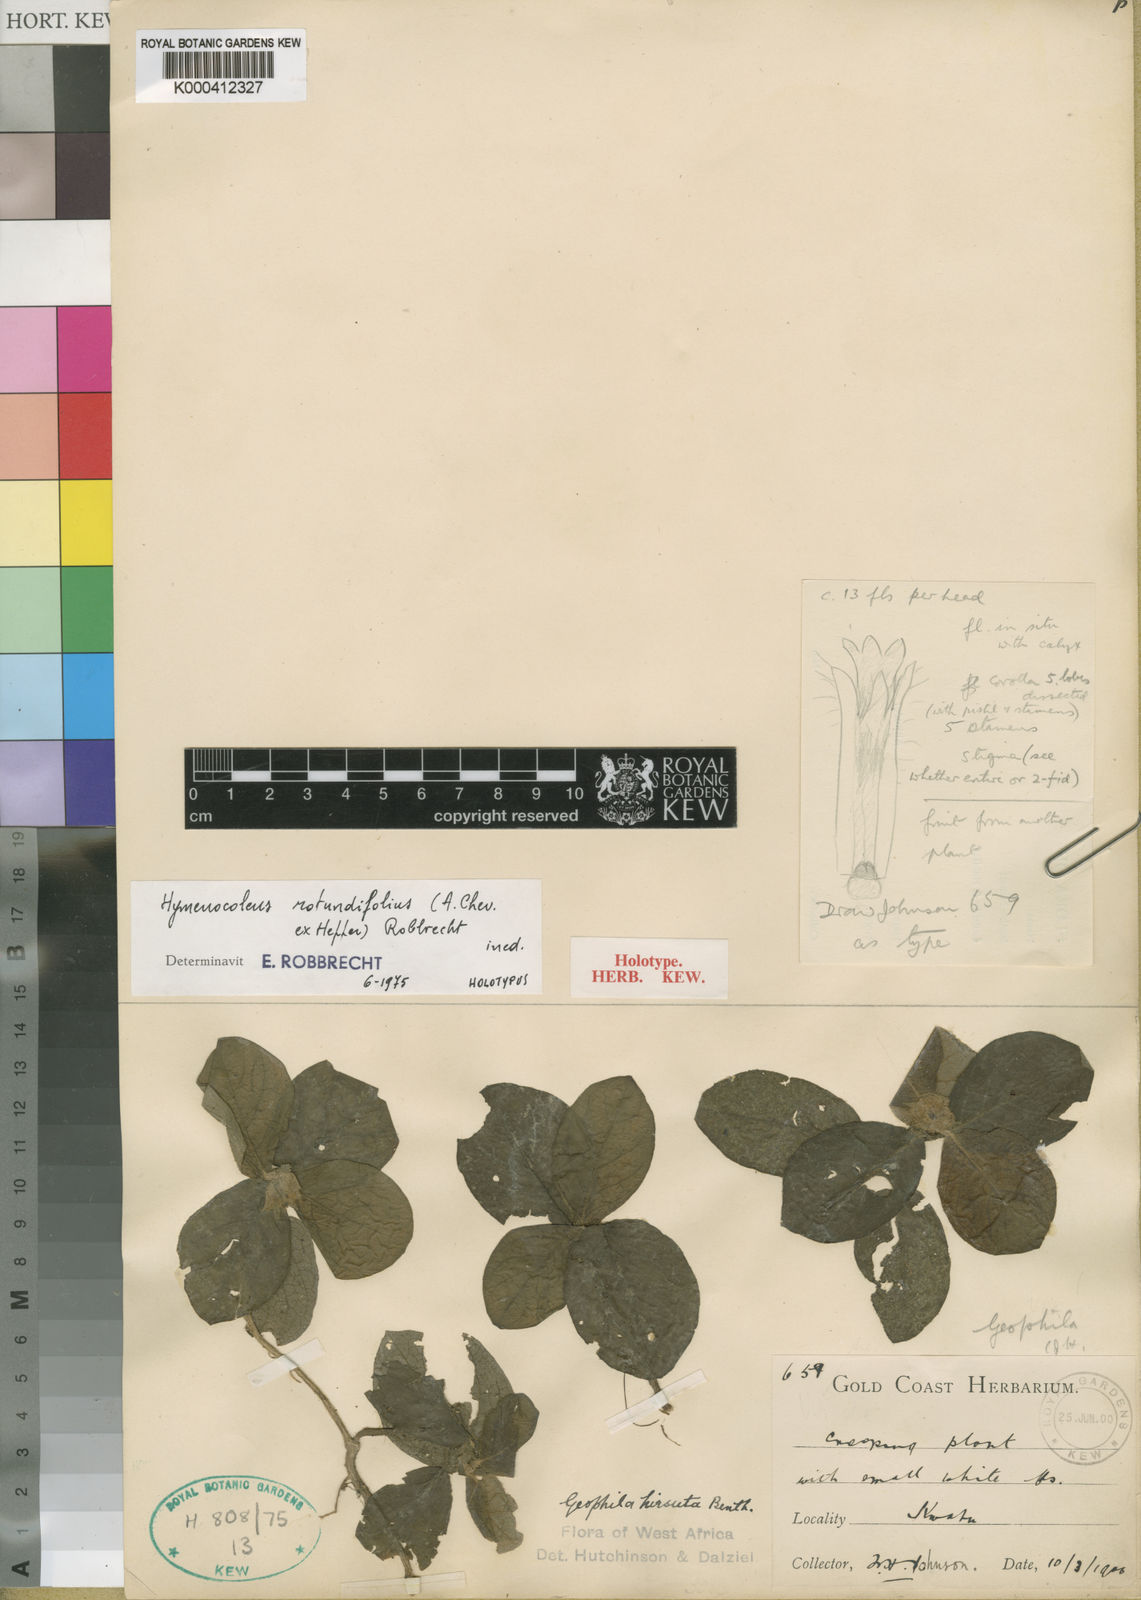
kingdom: Plantae
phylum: Tracheophyta
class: Magnoliopsida
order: Gentianales
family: Rubiaceae
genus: Hymenocoleus
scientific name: Hymenocoleus rotundifolius
